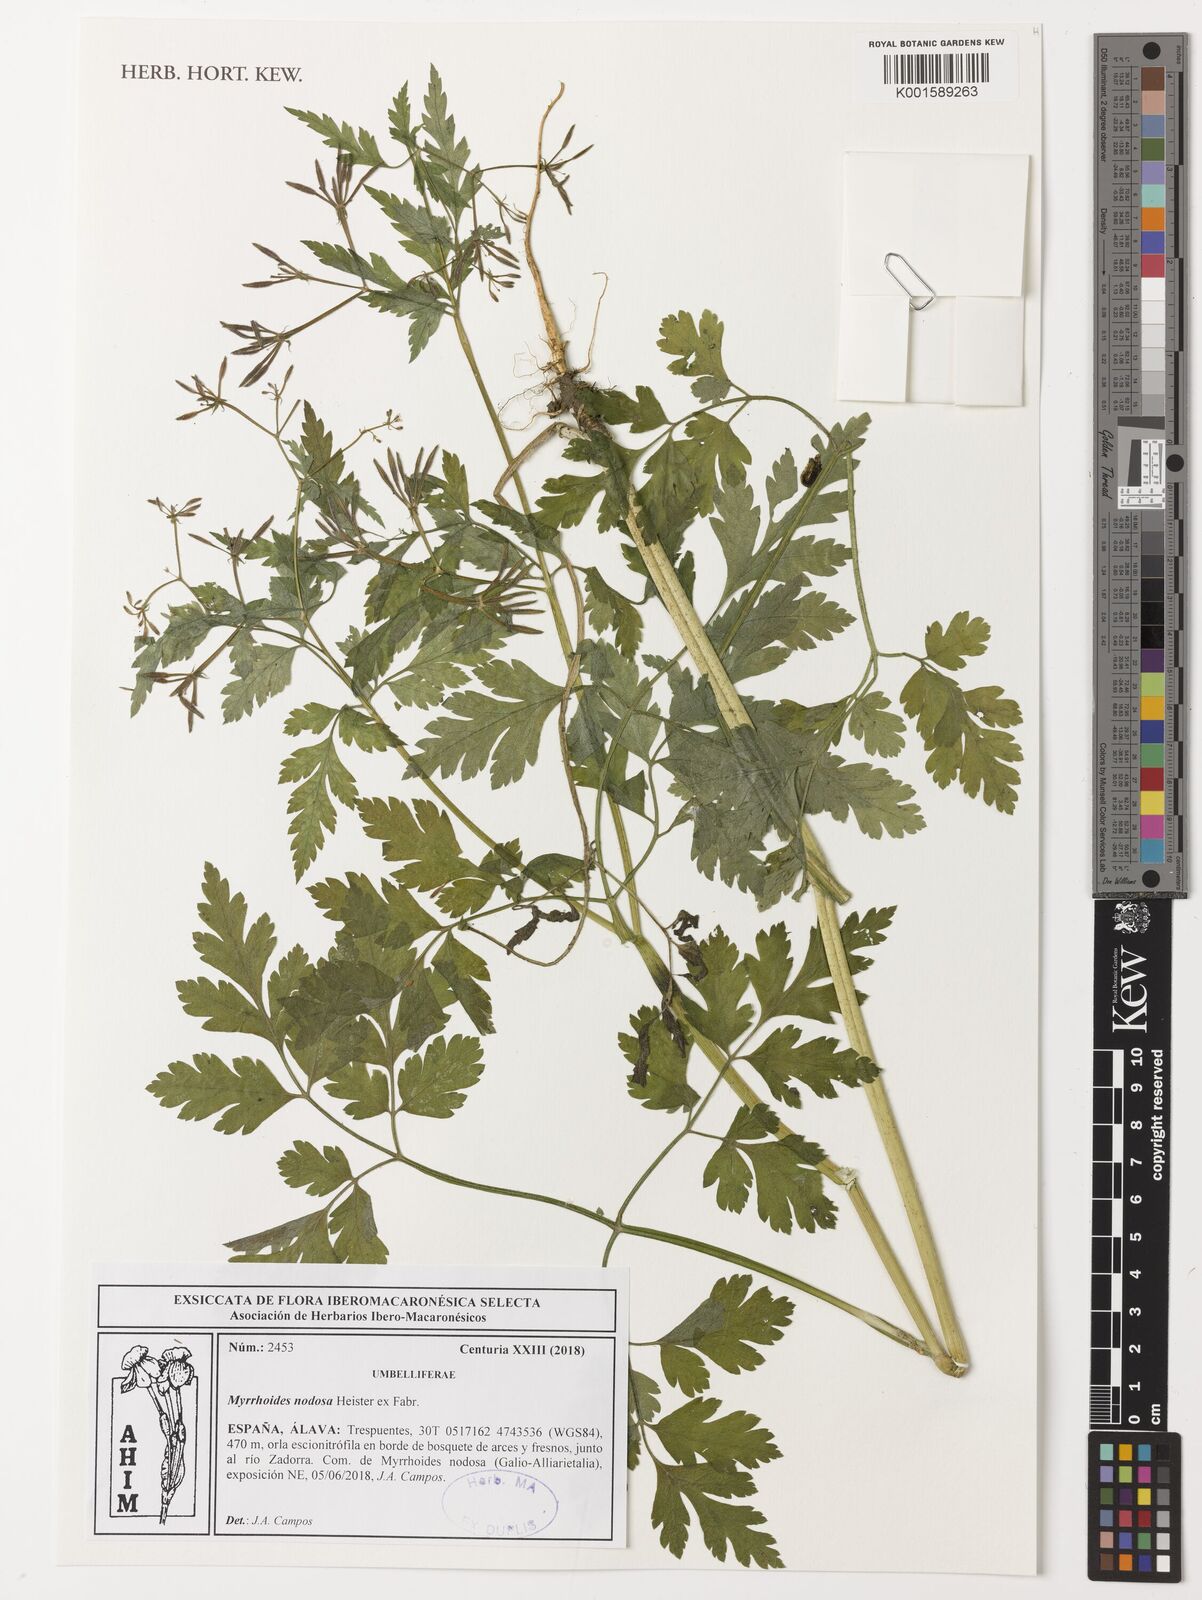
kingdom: Plantae
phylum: Tracheophyta
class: Magnoliopsida
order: Apiales
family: Apiaceae
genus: Chaerophyllum
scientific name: Chaerophyllum nodosum
